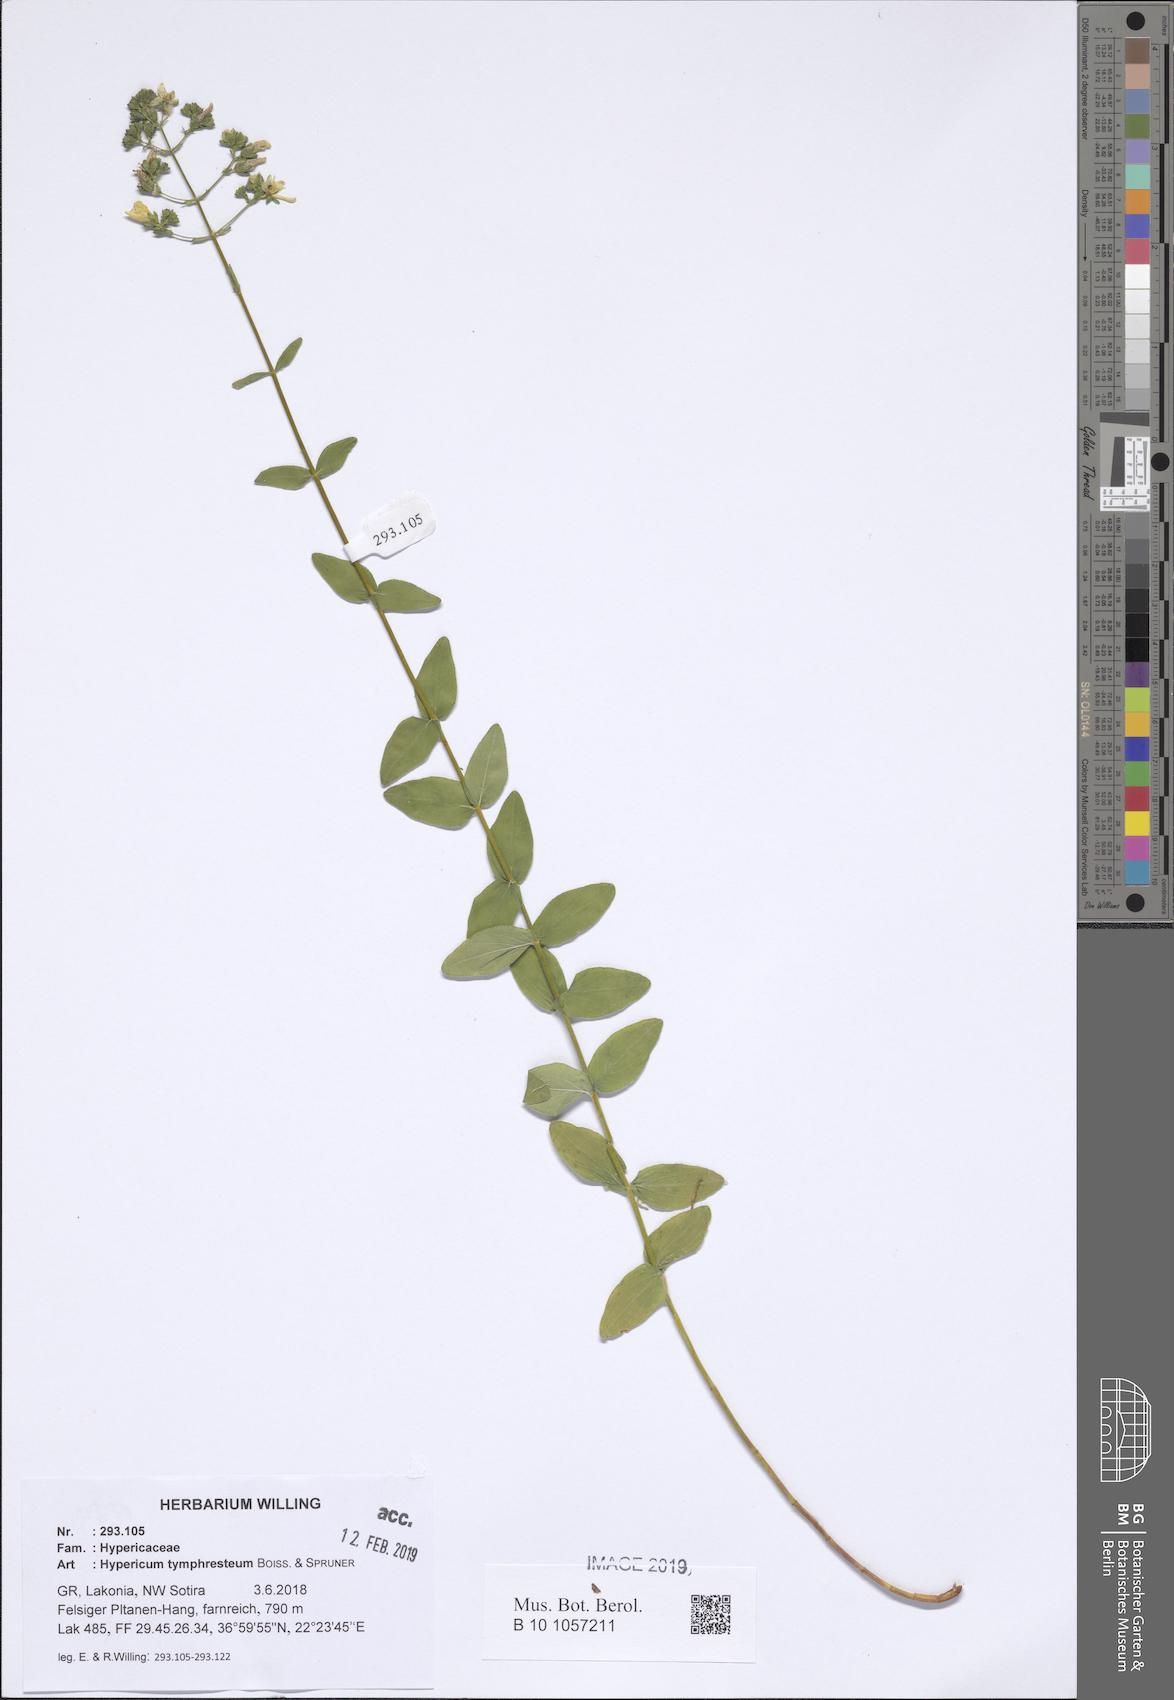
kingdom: Plantae
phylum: Tracheophyta
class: Magnoliopsida
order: Malpighiales
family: Hypericaceae
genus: Hypericum
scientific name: Hypericum atomarium
